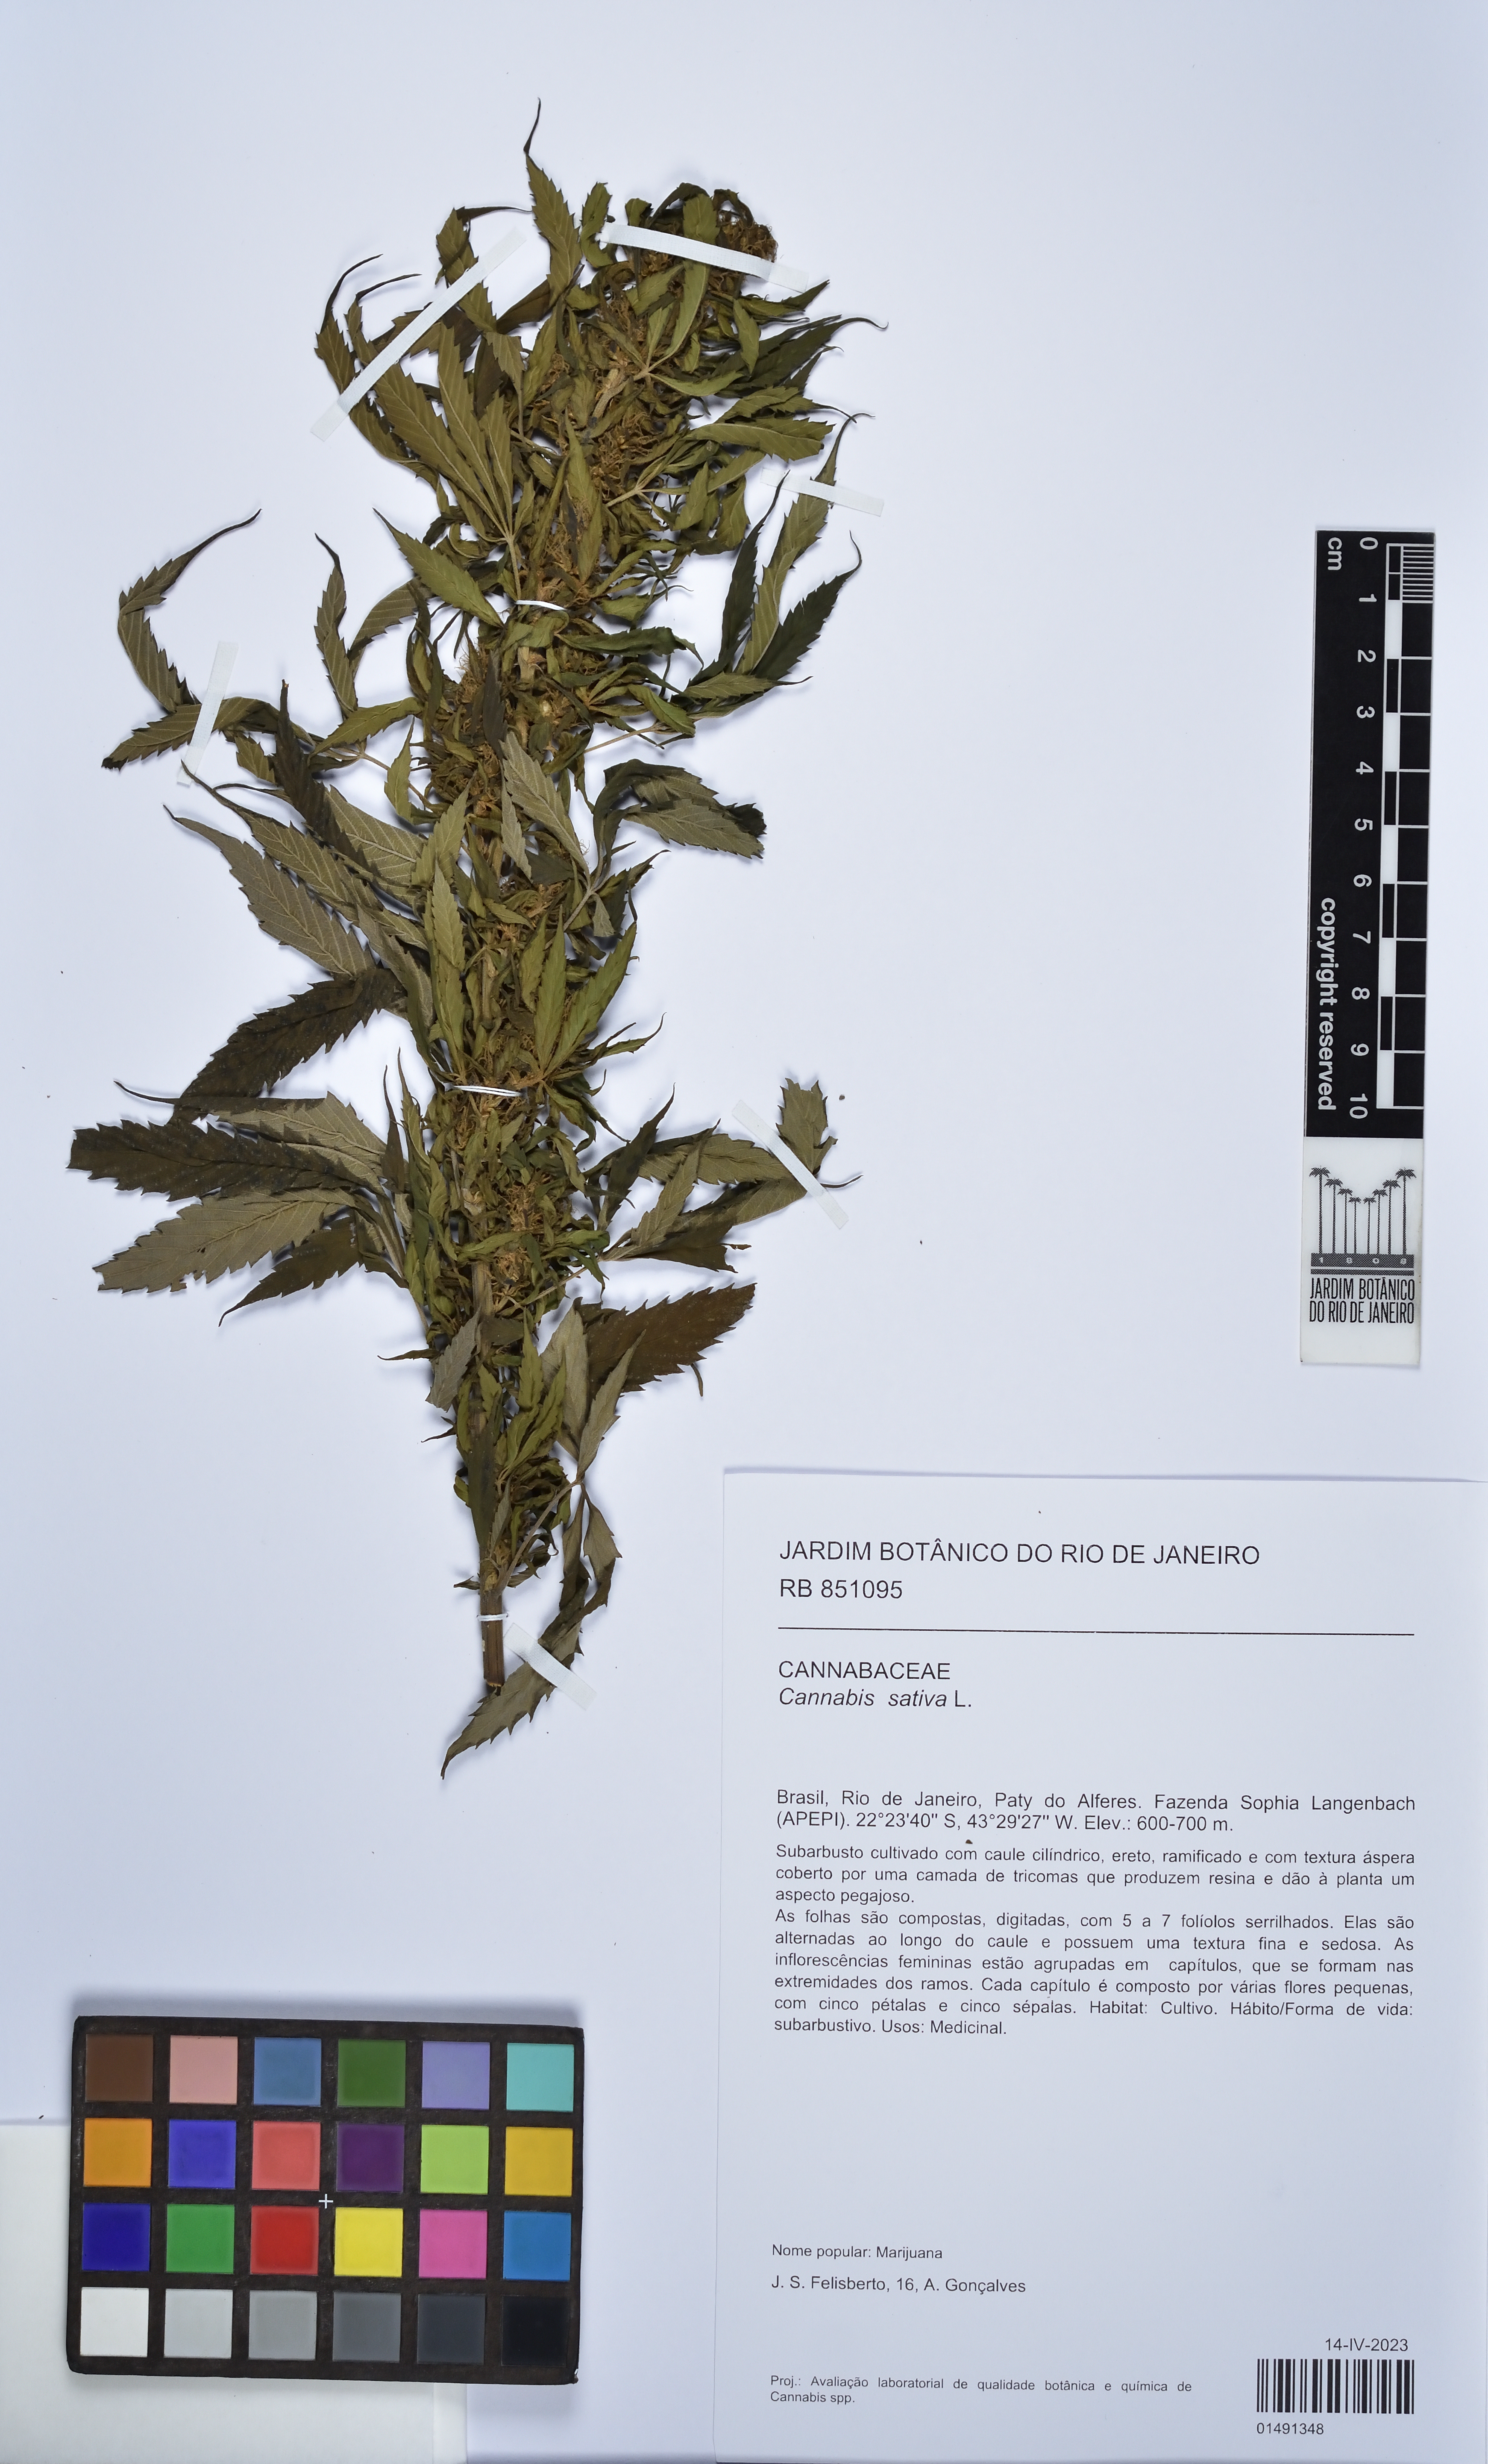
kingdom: Plantae
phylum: Tracheophyta
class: Magnoliopsida
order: Rosales
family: Cannabaceae
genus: Cannabis
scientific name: Cannabis sativa
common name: Hemp
